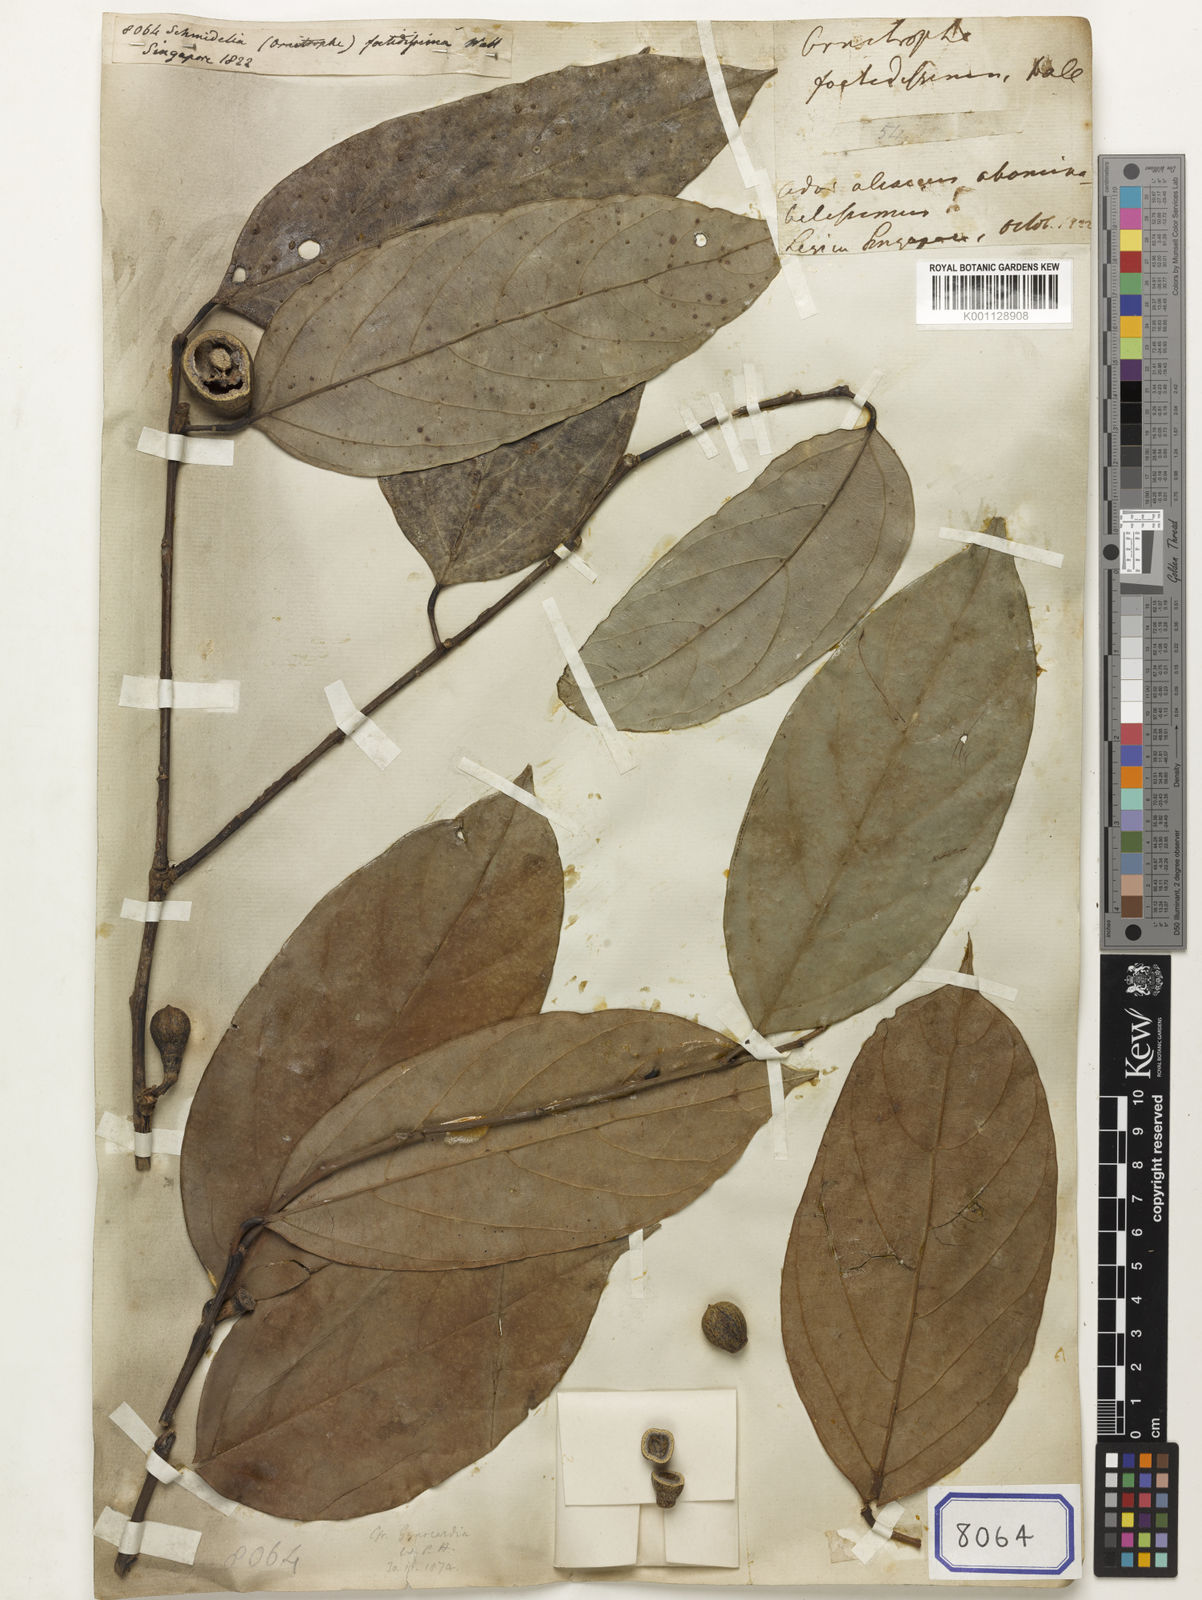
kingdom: Plantae
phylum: Tracheophyta
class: Magnoliopsida
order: Sapindales
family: Sapindaceae
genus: Allophylus
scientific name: Allophylus Schmidelia foetidissima
